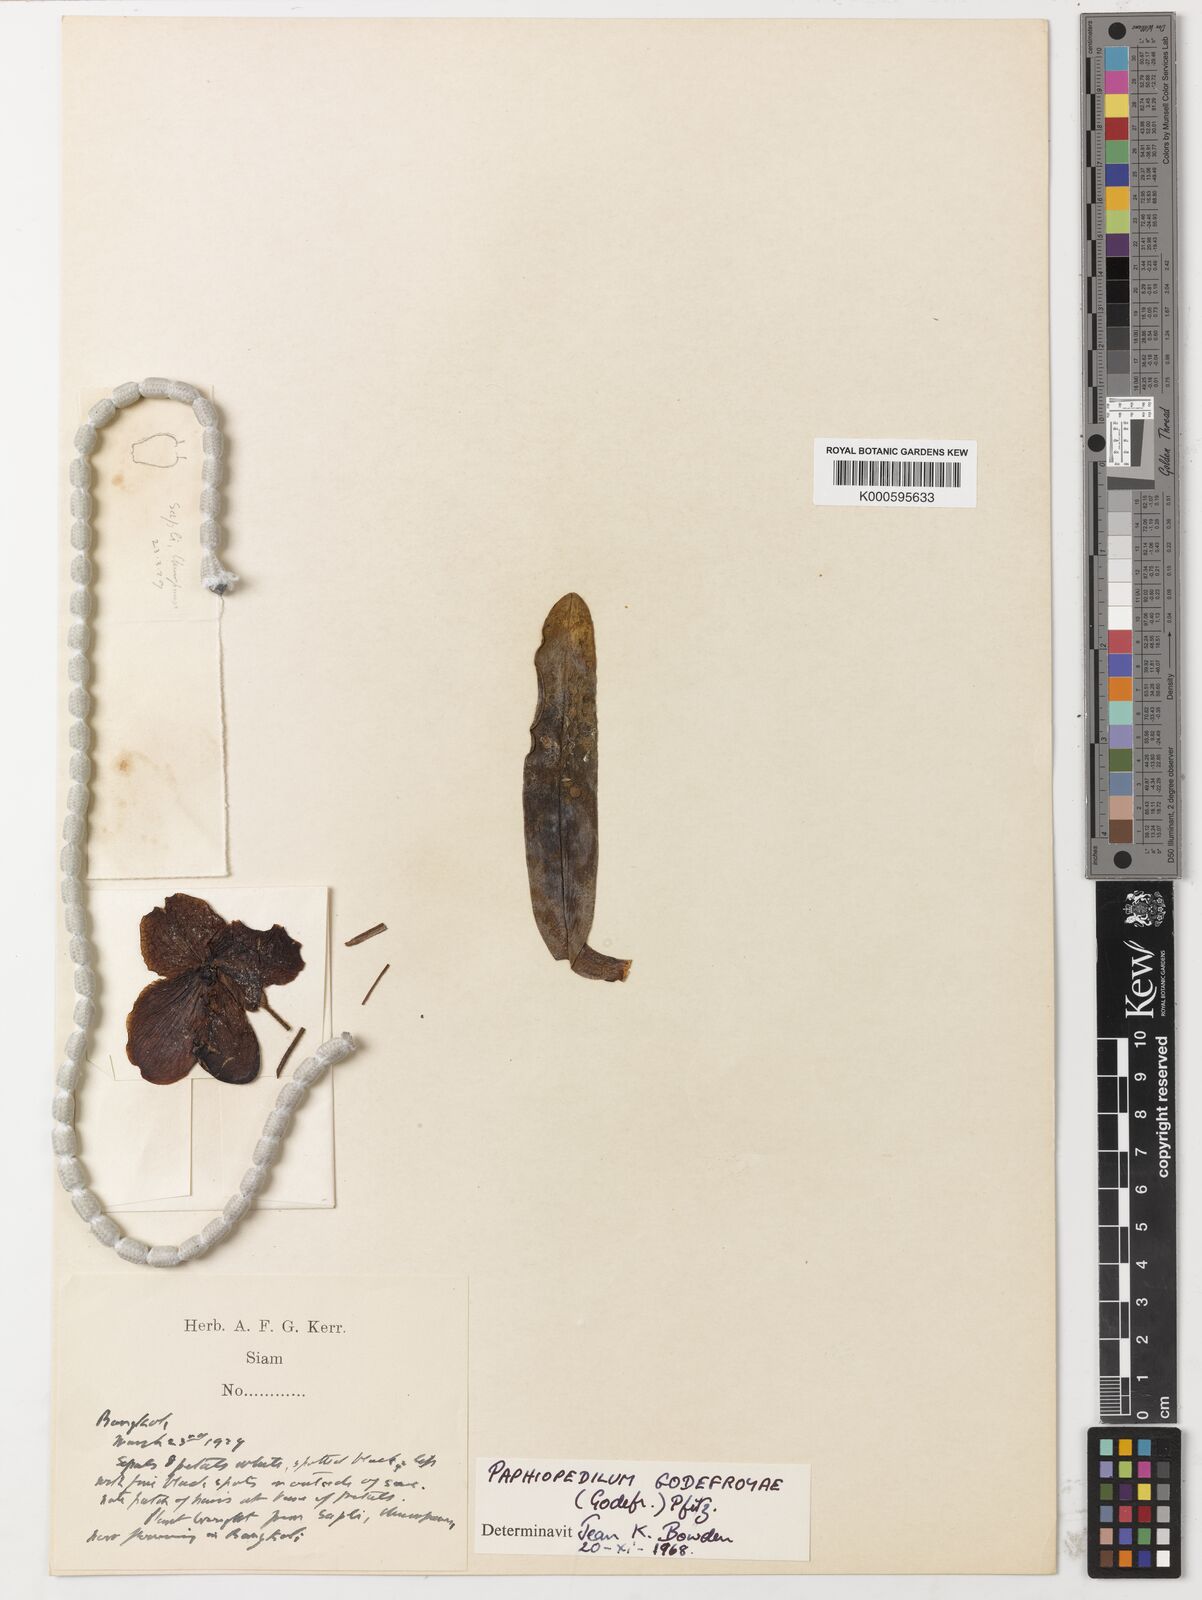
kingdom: Plantae
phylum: Tracheophyta
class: Liliopsida
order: Asparagales
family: Orchidaceae
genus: Paphiopedilum
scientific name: Paphiopedilum godefroyae
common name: Godefroy's paphiopedilum
